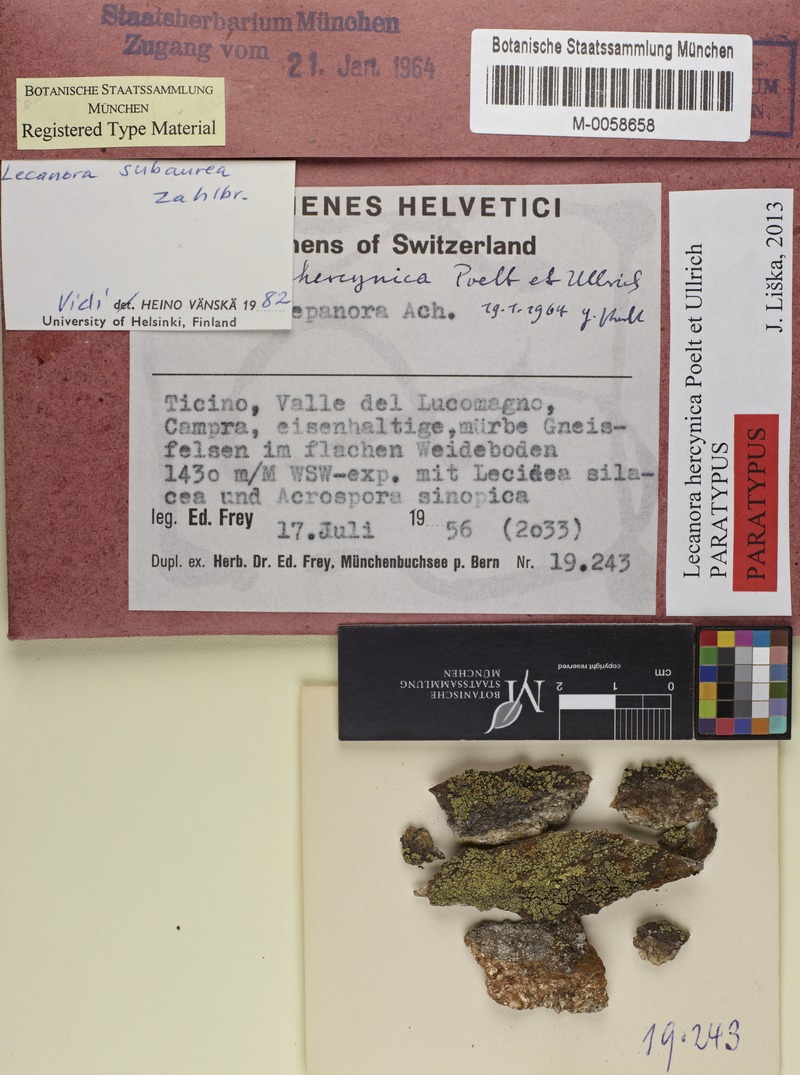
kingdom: Fungi
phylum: Ascomycota
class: Lecanoromycetes
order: Lecideales
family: Lecideaceae
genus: Lecidea
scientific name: Lecidea silacea
